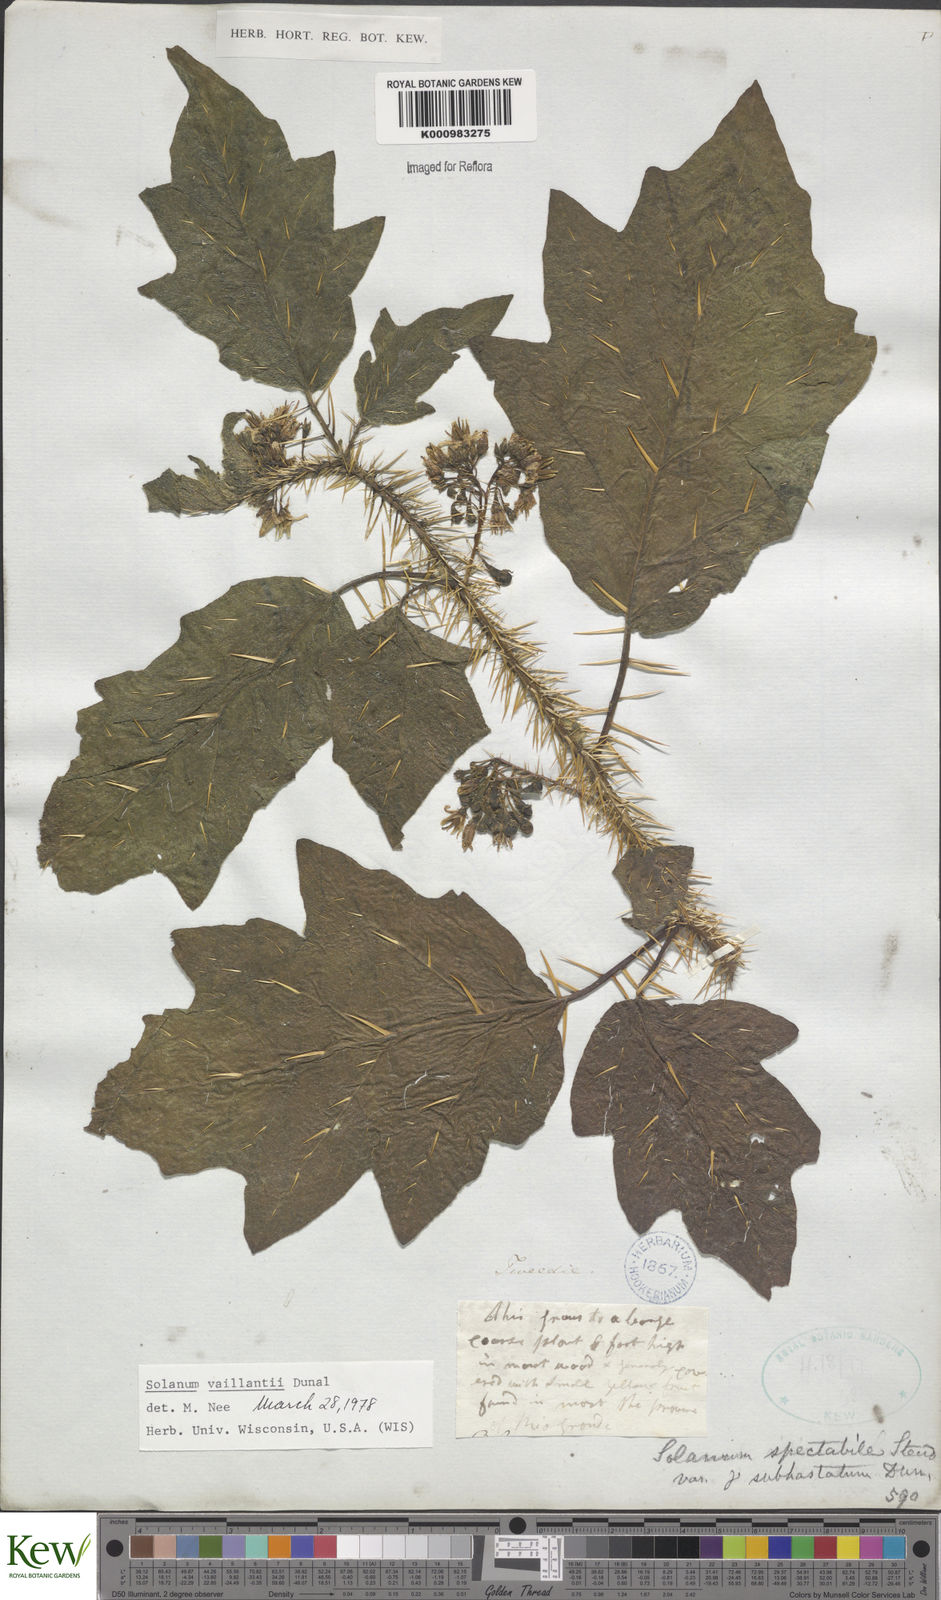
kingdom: Plantae
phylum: Tracheophyta
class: Magnoliopsida
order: Solanales
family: Solanaceae
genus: Solanum
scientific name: Solanum vaillantii
